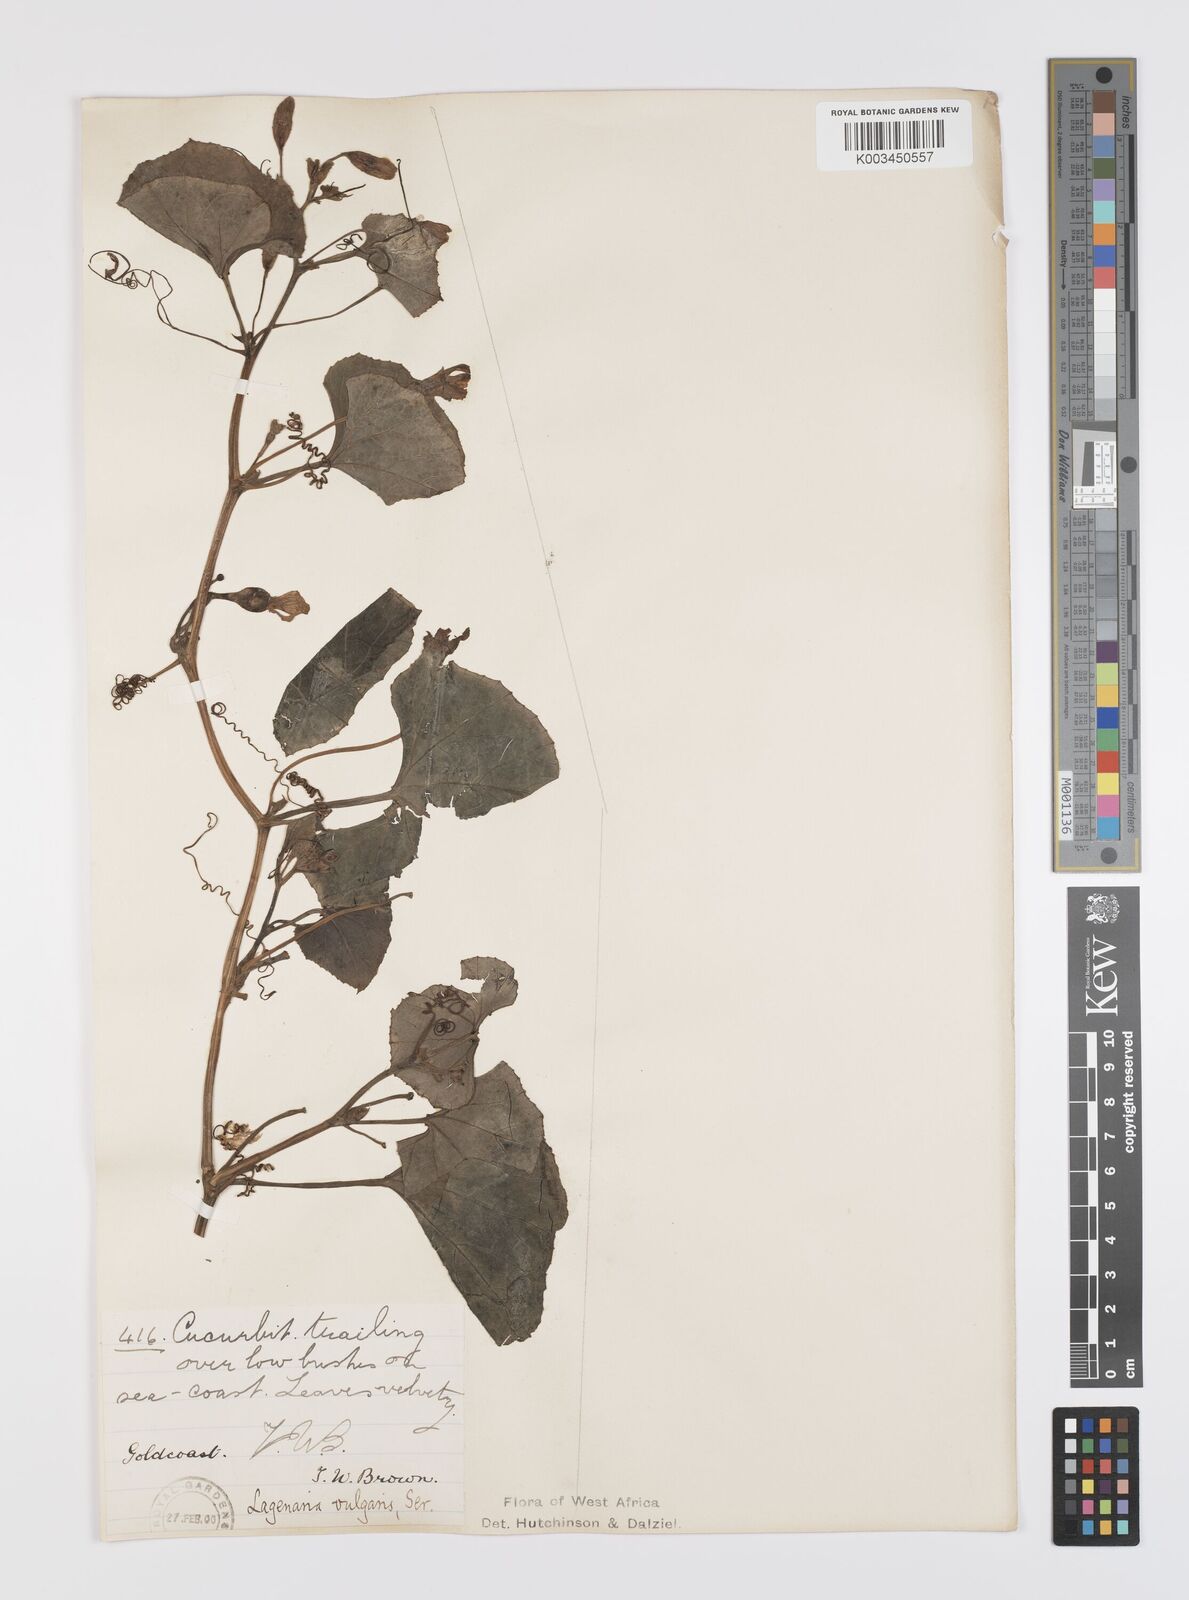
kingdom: Plantae
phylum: Tracheophyta
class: Magnoliopsida
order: Cucurbitales
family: Cucurbitaceae
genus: Lagenaria
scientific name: Lagenaria siceraria
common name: Bottle gourd
